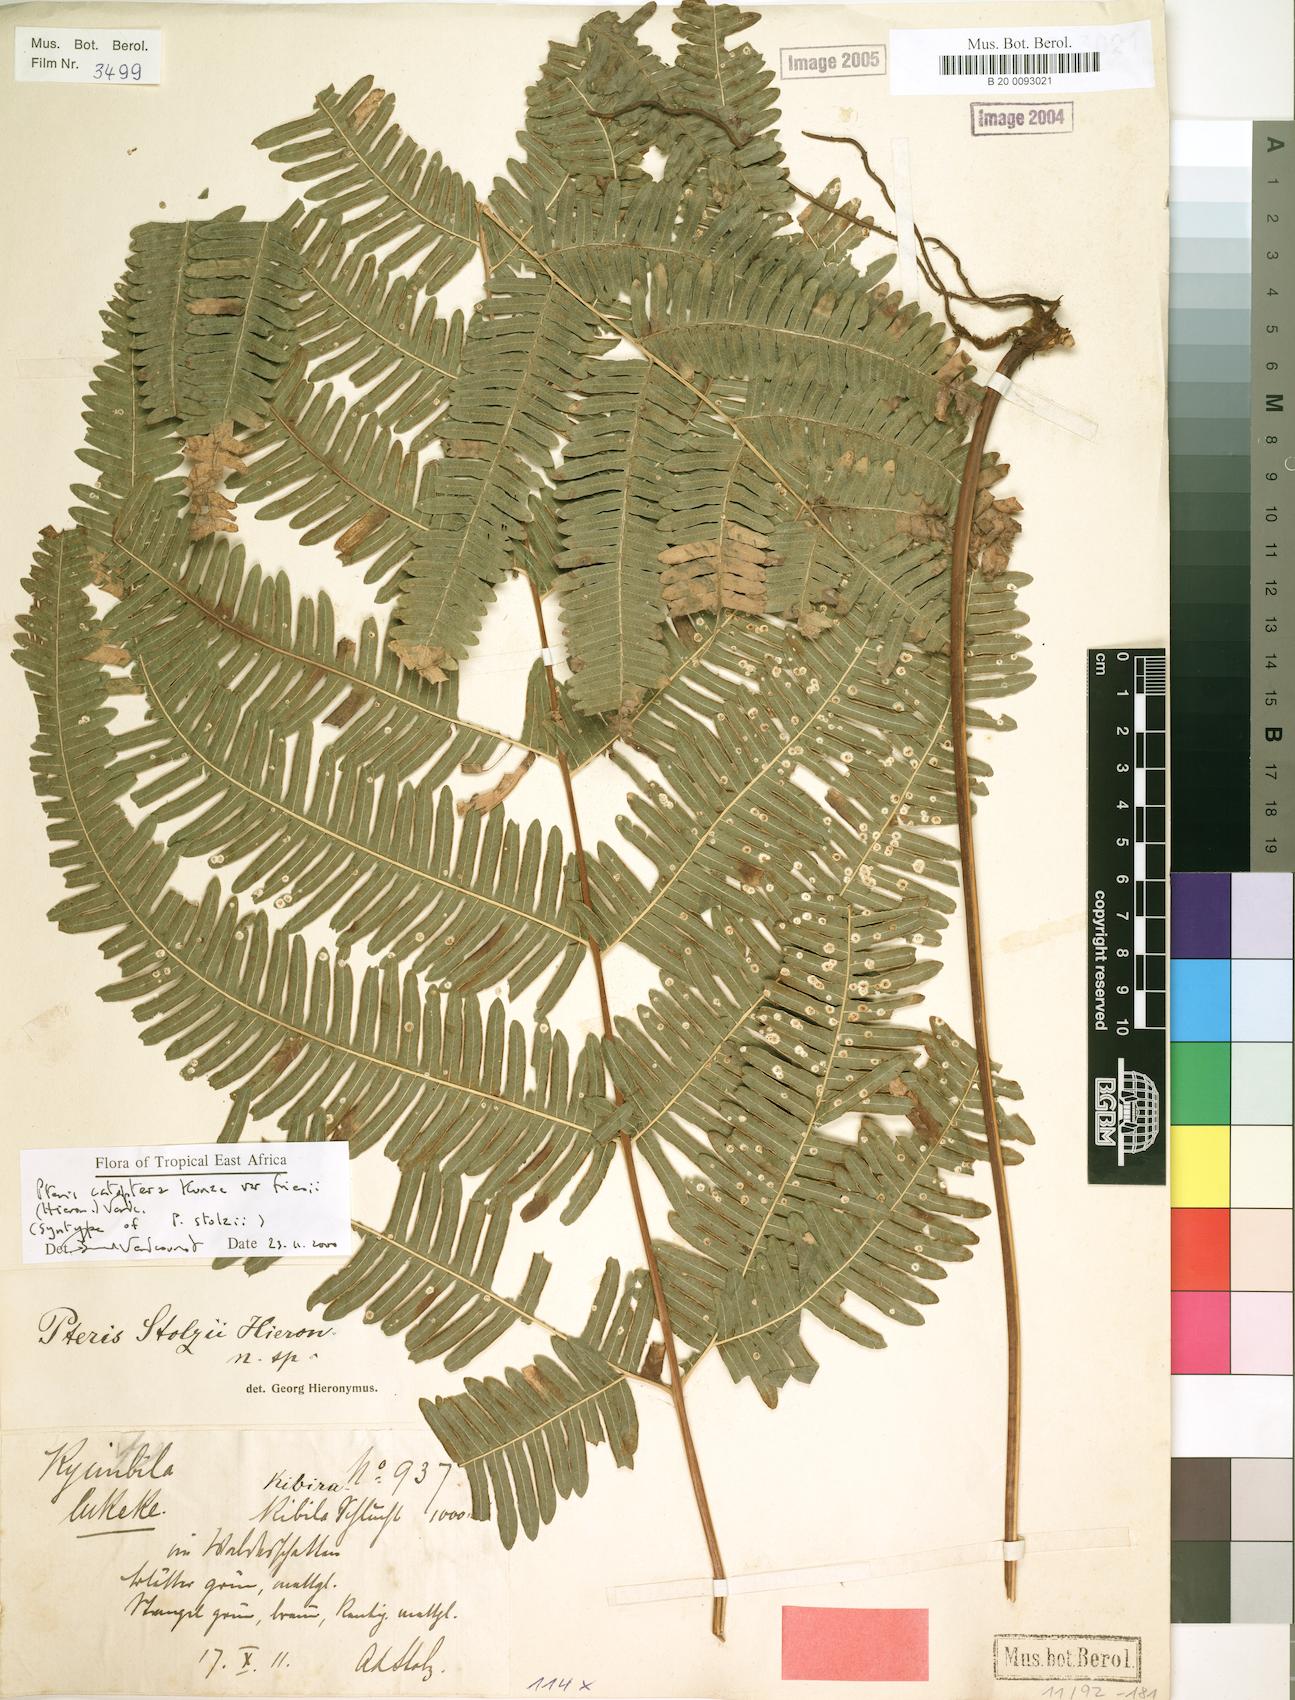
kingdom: Plantae
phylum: Tracheophyta
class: Polypodiopsida
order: Polypodiales
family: Pteridaceae
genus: Pteris
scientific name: Pteris friesii
